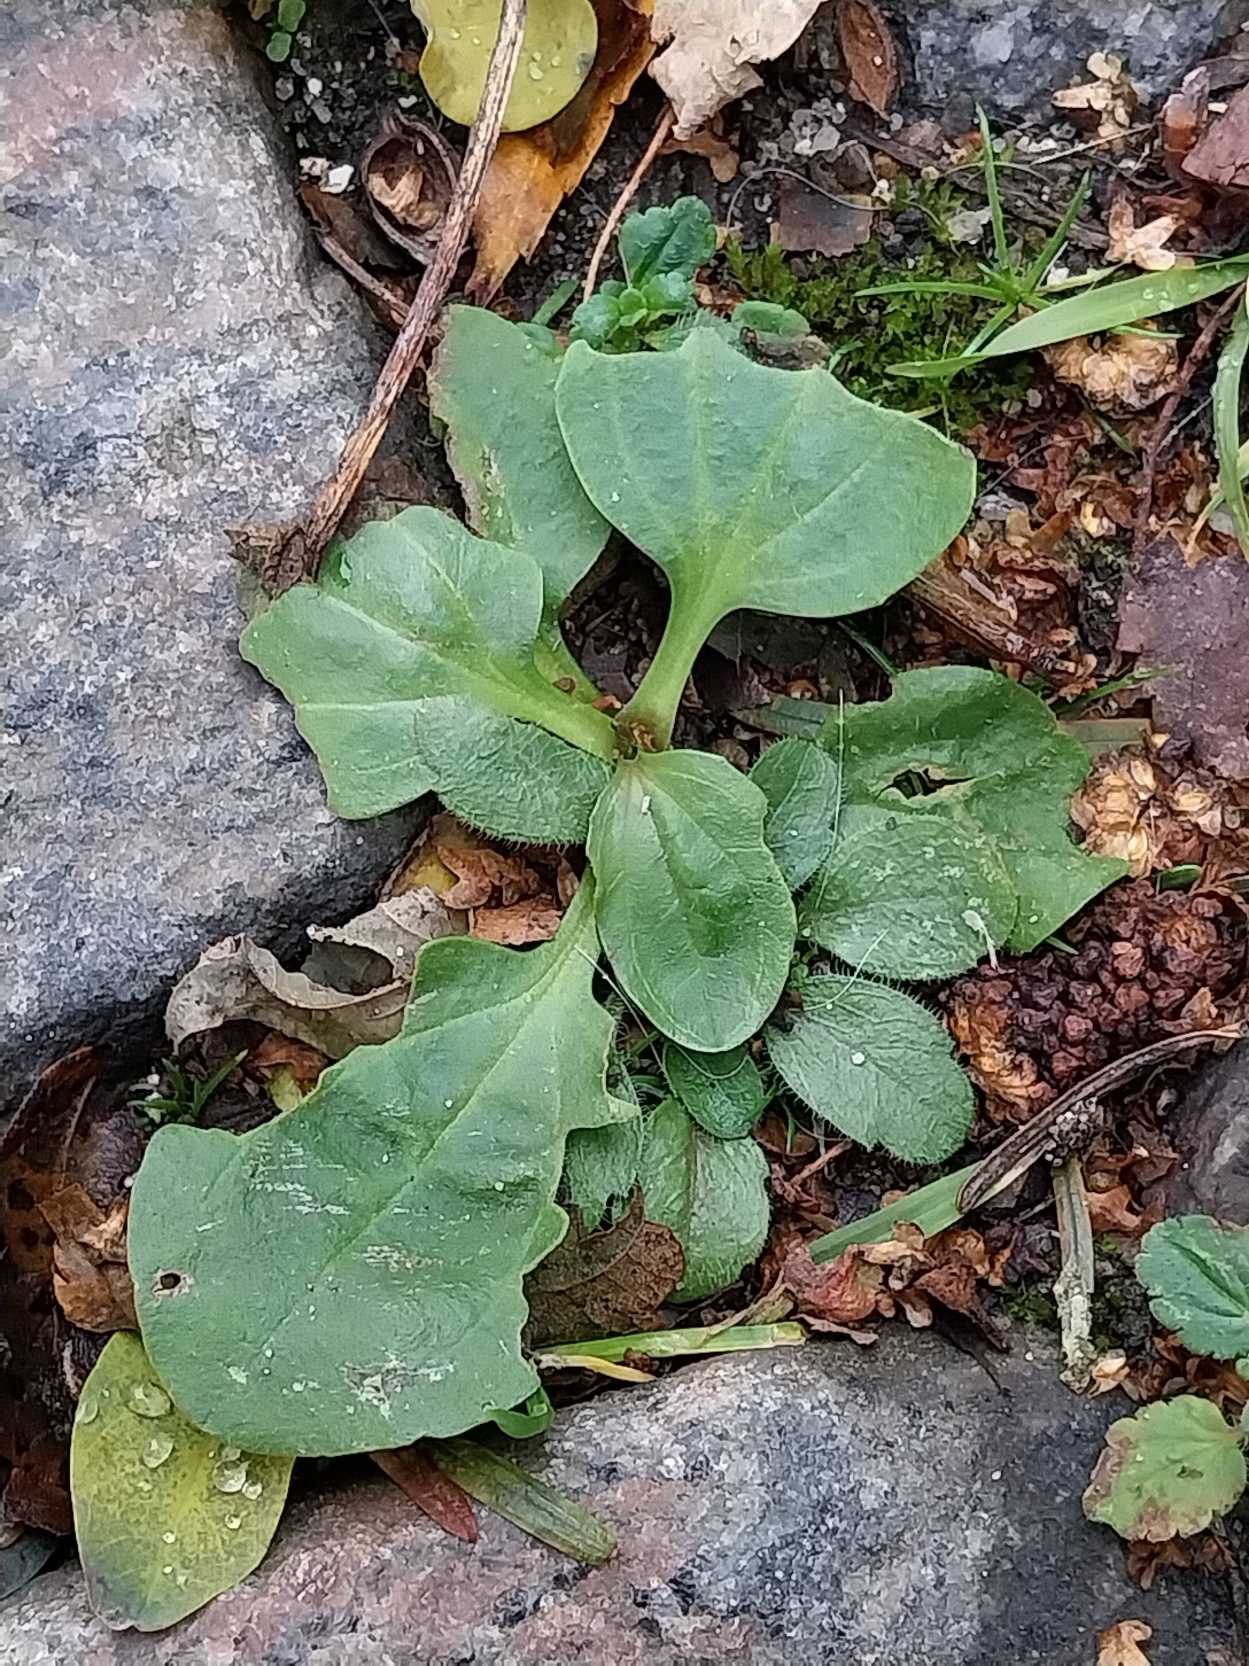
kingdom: Plantae
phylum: Tracheophyta
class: Magnoliopsida
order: Lamiales
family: Plantaginaceae
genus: Plantago
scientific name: Plantago major
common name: Glat vejbred
